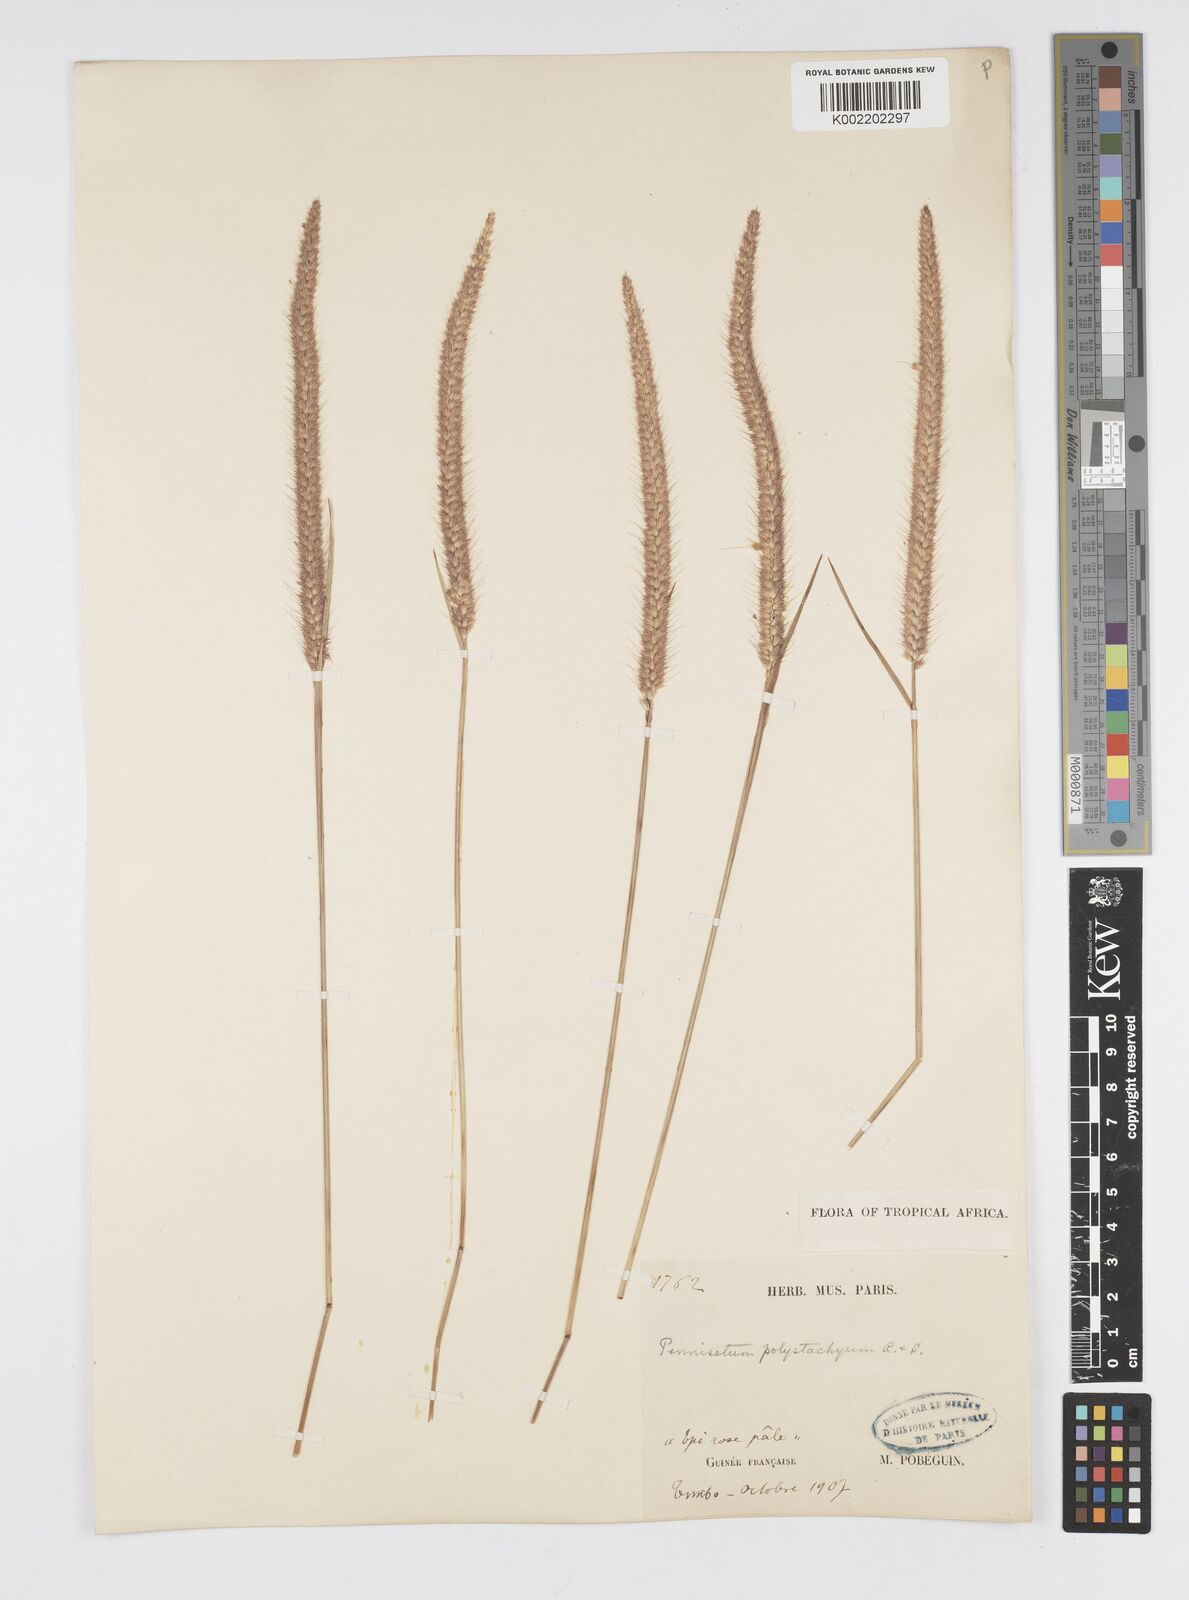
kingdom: Plantae
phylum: Tracheophyta
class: Liliopsida
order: Poales
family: Poaceae
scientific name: Poaceae
